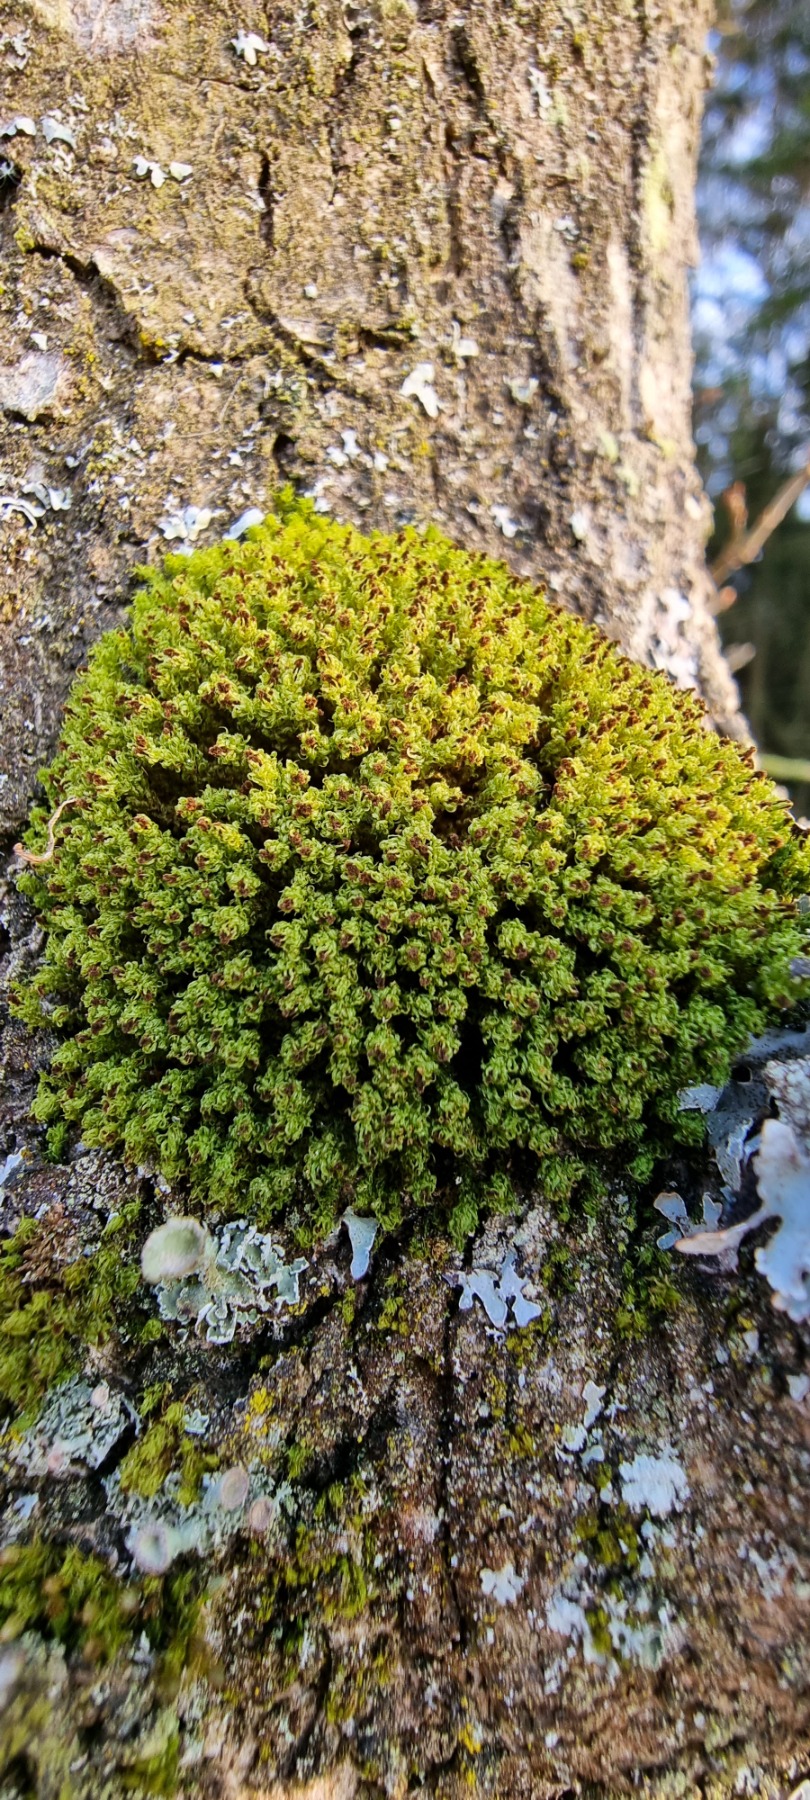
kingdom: Plantae
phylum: Bryophyta
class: Bryopsida
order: Orthotrichales
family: Orthotrichaceae
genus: Plenogemma
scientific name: Plenogemma phyllantha
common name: Stor låddenhætte
